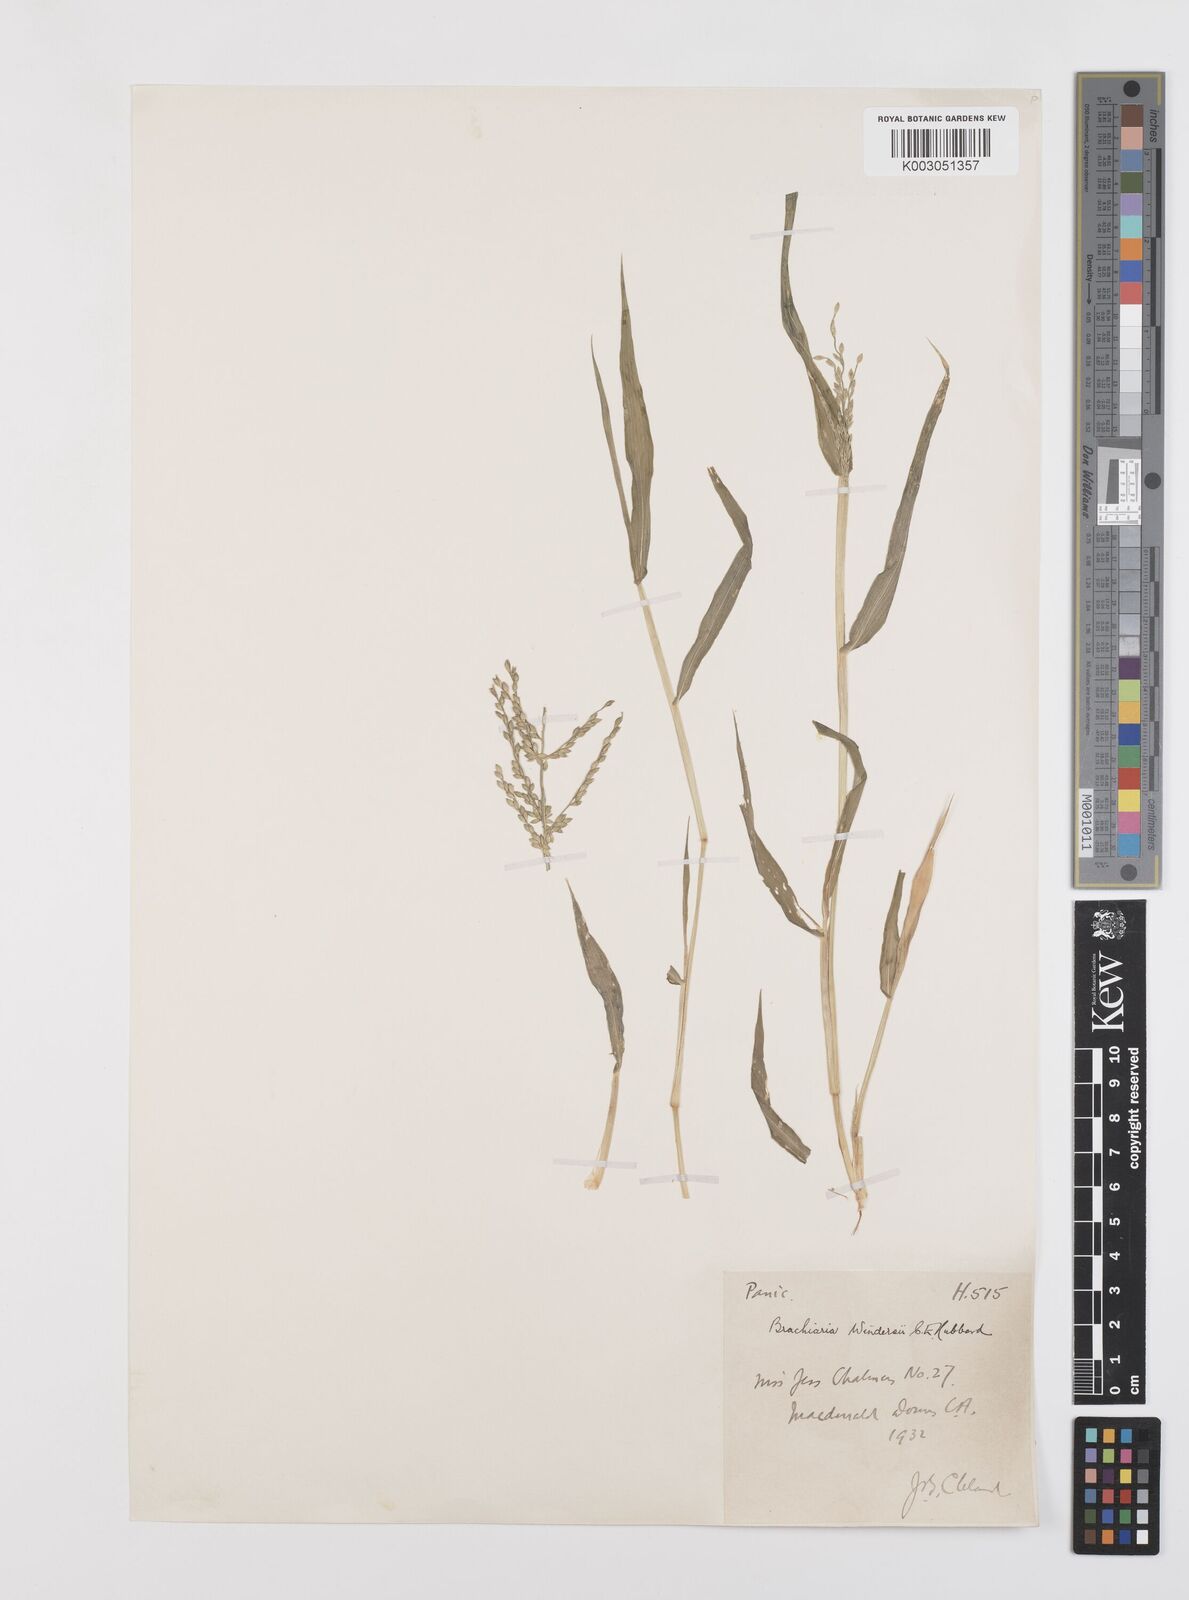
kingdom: Plantae
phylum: Tracheophyta
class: Liliopsida
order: Poales
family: Poaceae
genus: Urochloa
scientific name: Urochloa whiteana
